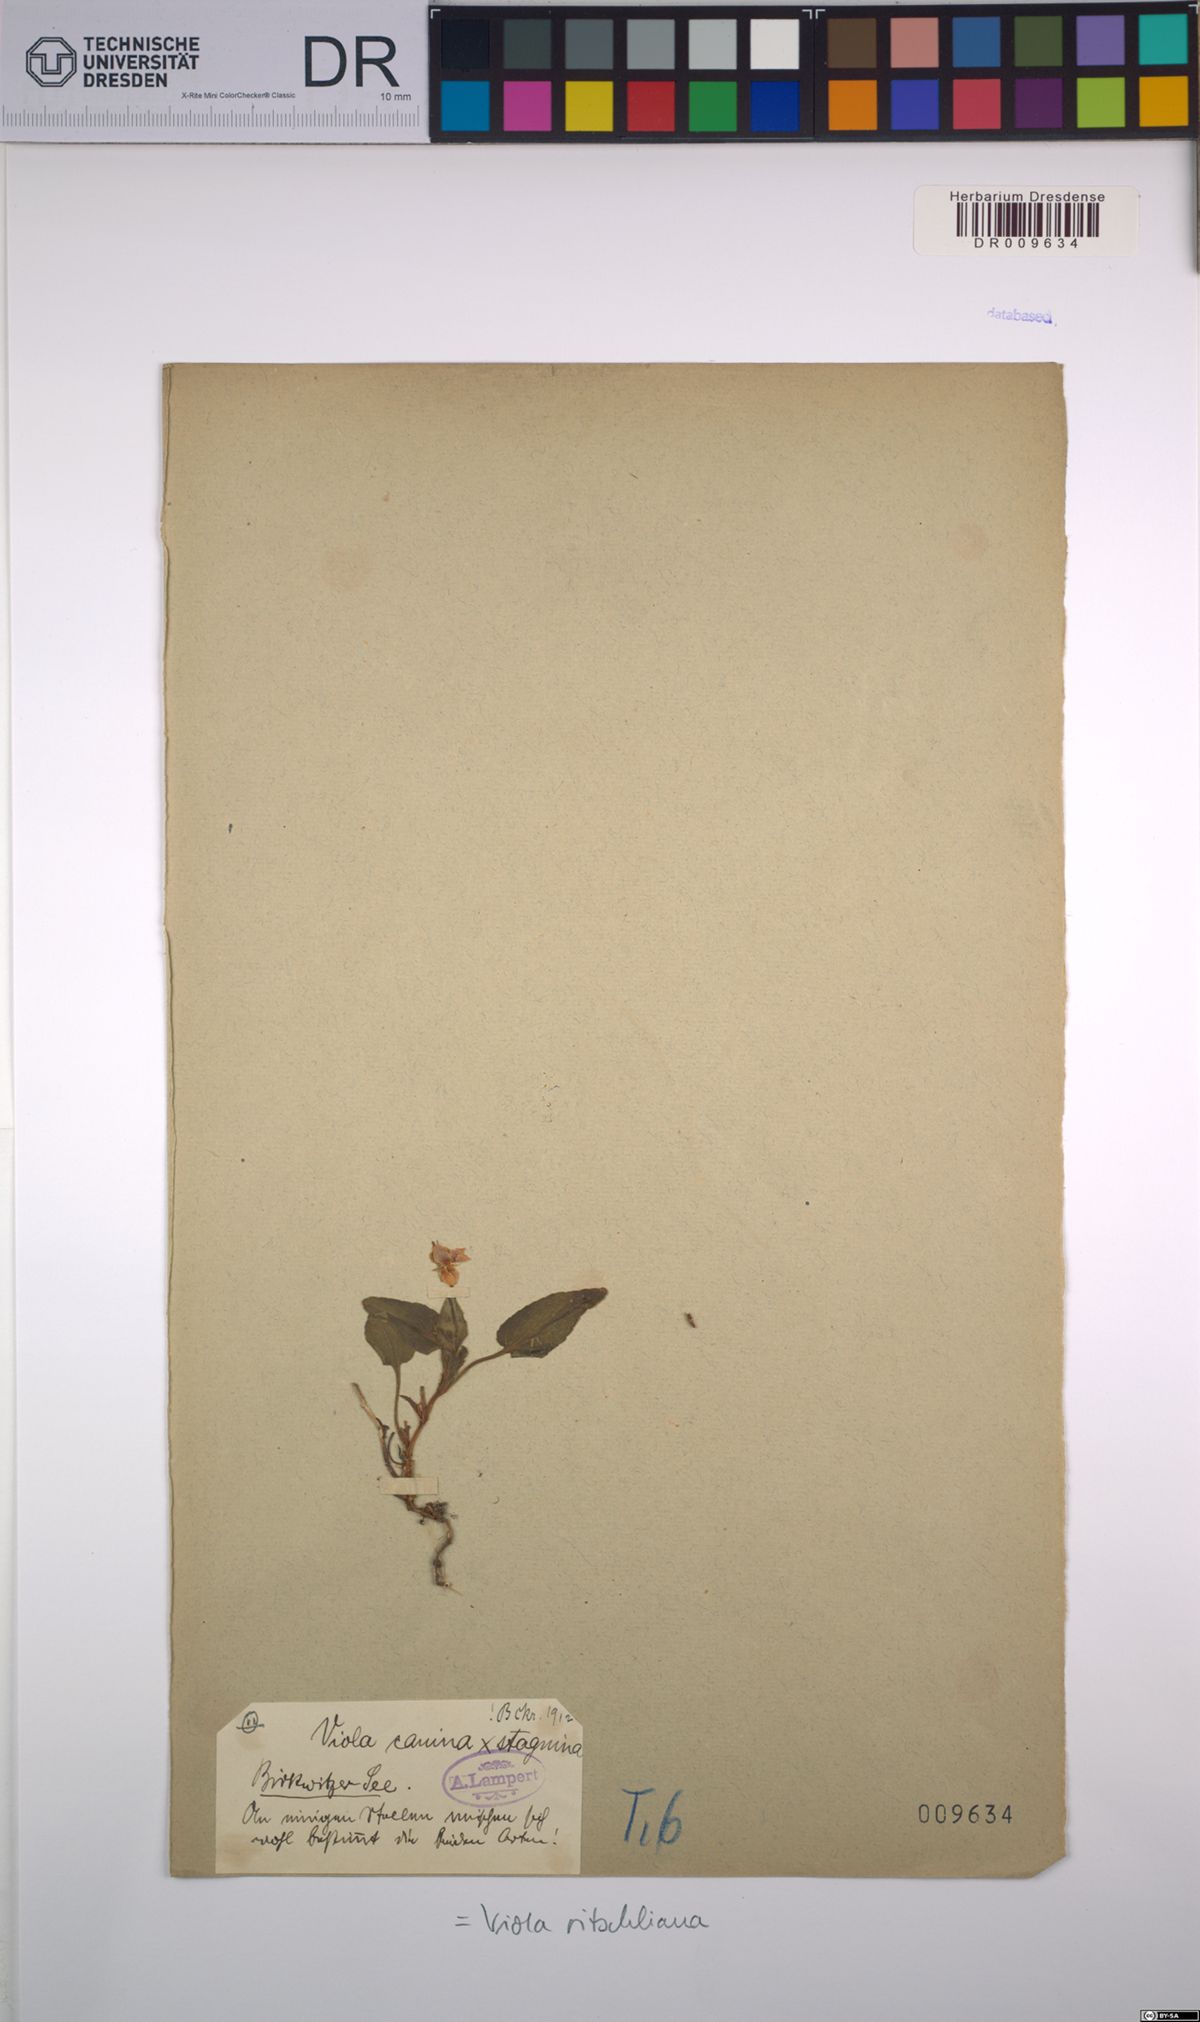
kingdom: Plantae
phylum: Tracheophyta
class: Magnoliopsida
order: Malpighiales
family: Violaceae
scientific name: Violaceae
